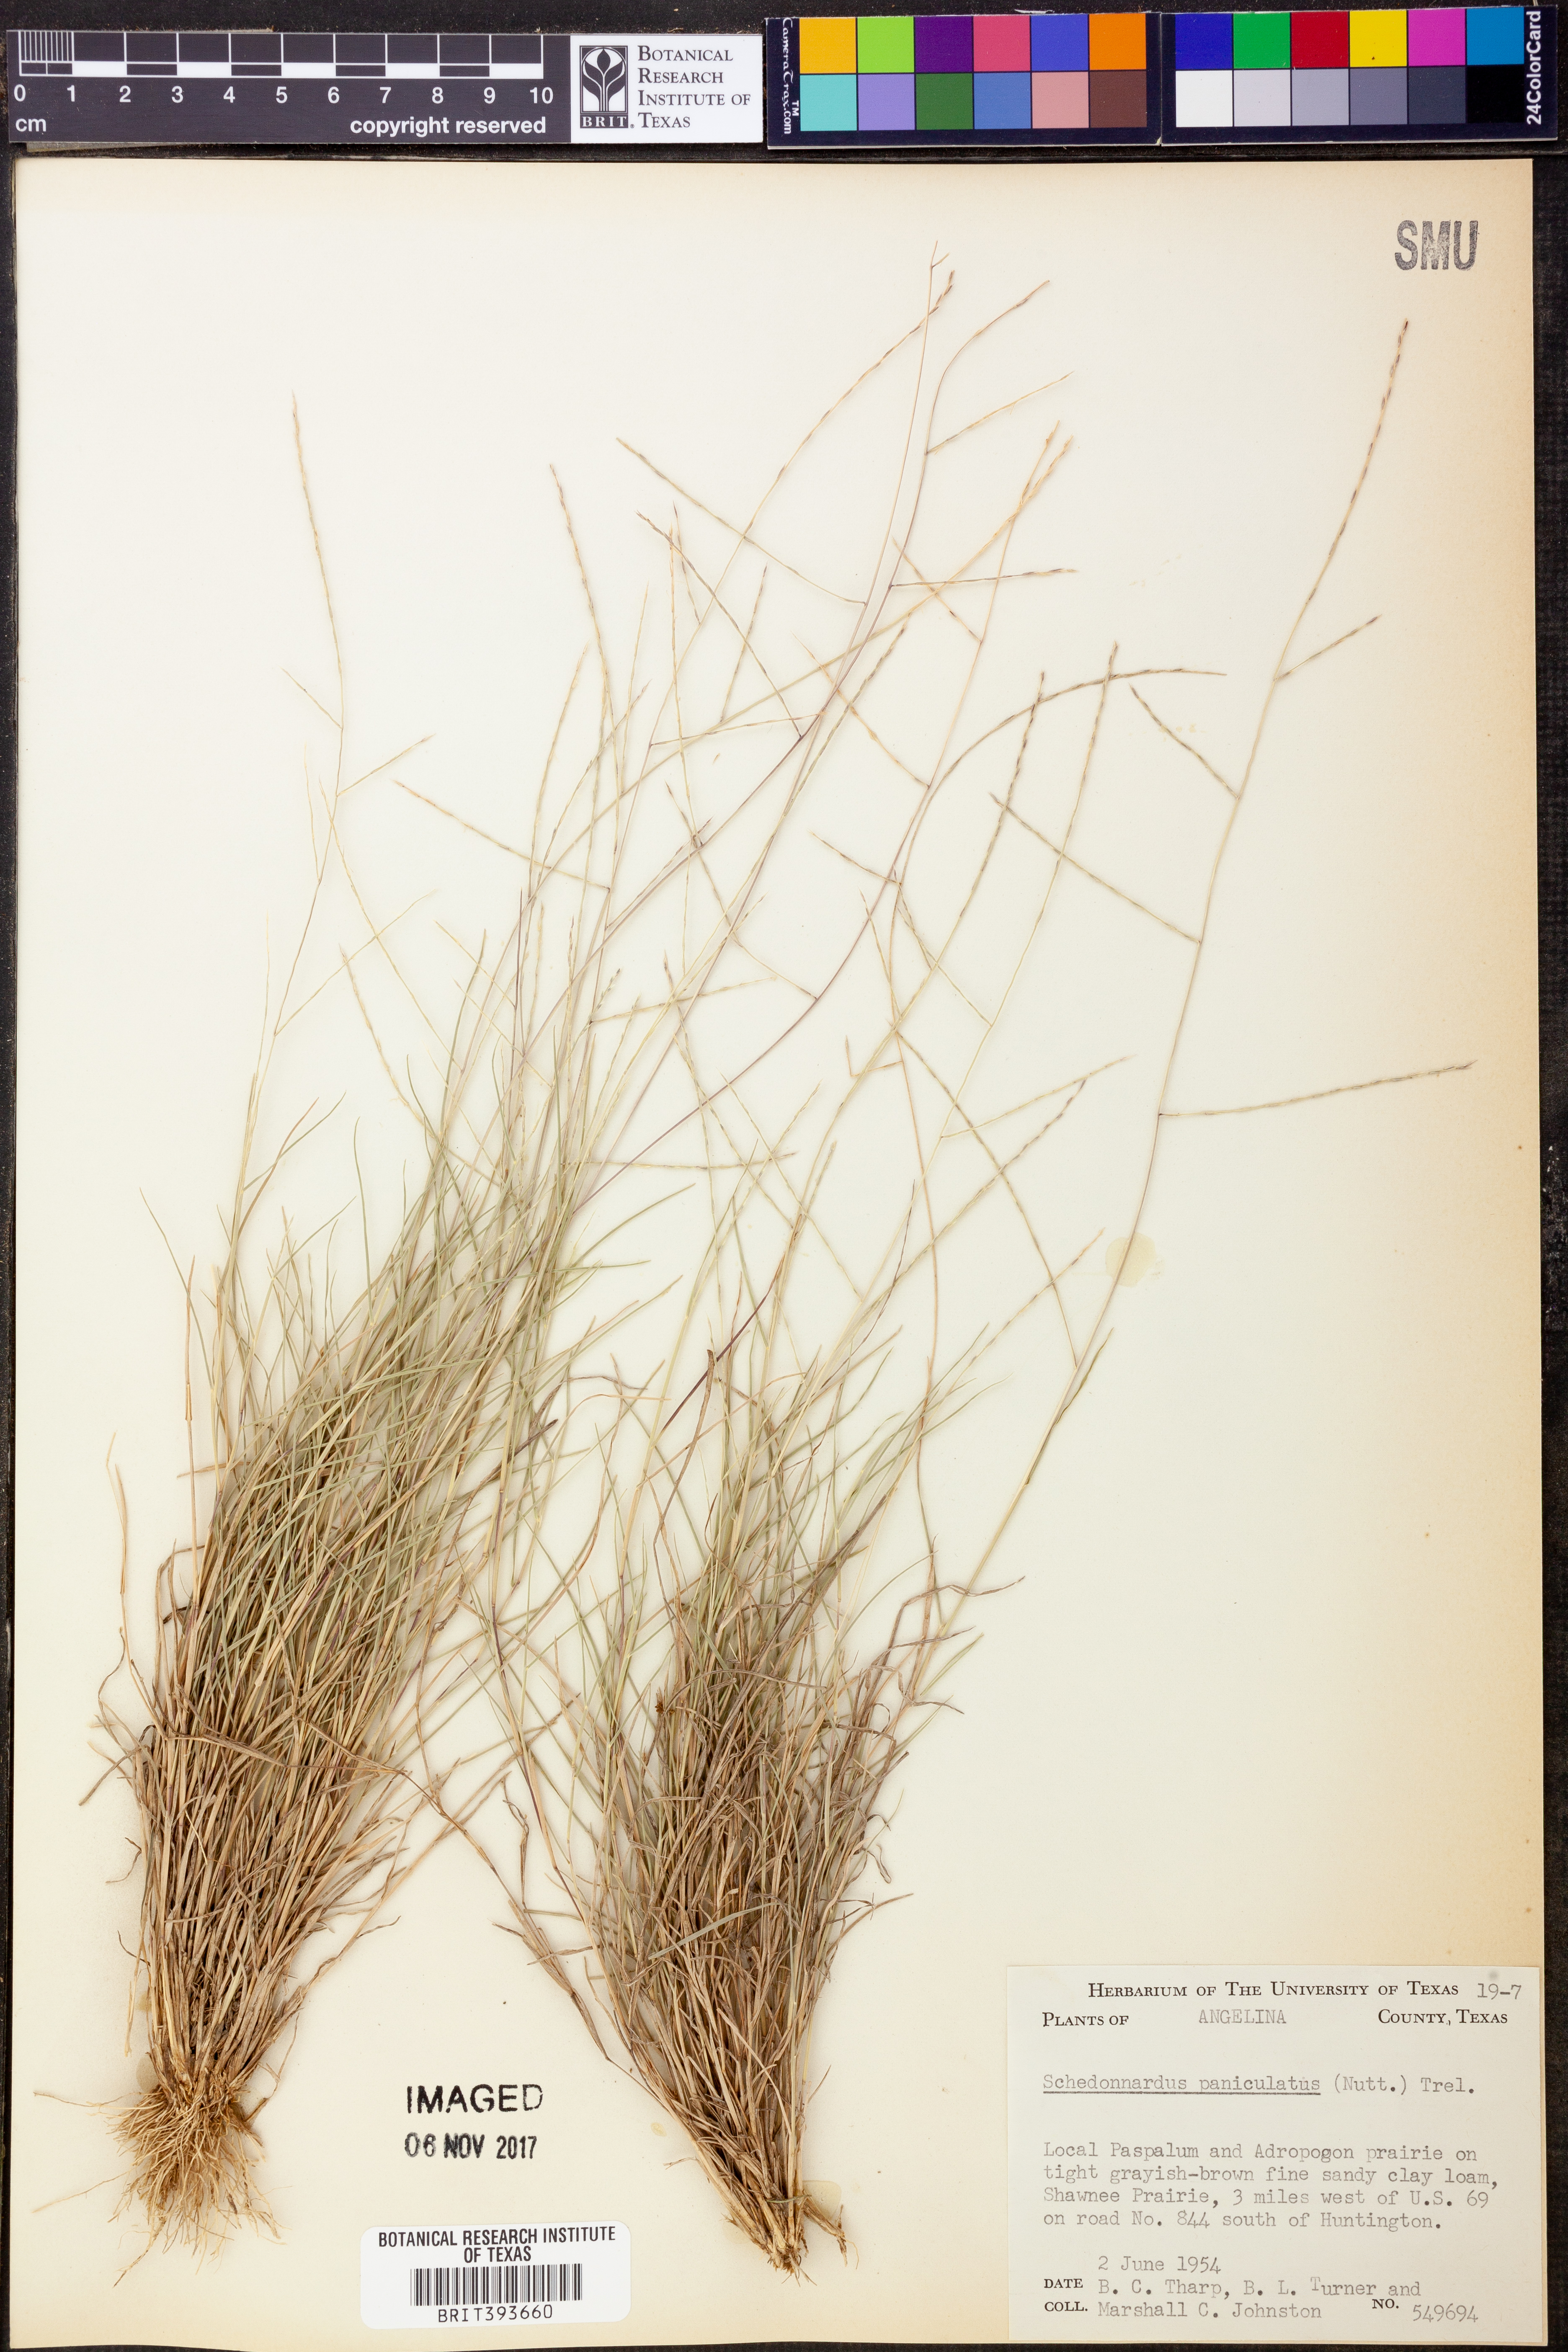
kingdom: Plantae
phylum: Tracheophyta
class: Liliopsida
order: Poales
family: Poaceae
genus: Muhlenbergia
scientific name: Muhlenbergia paniculata
